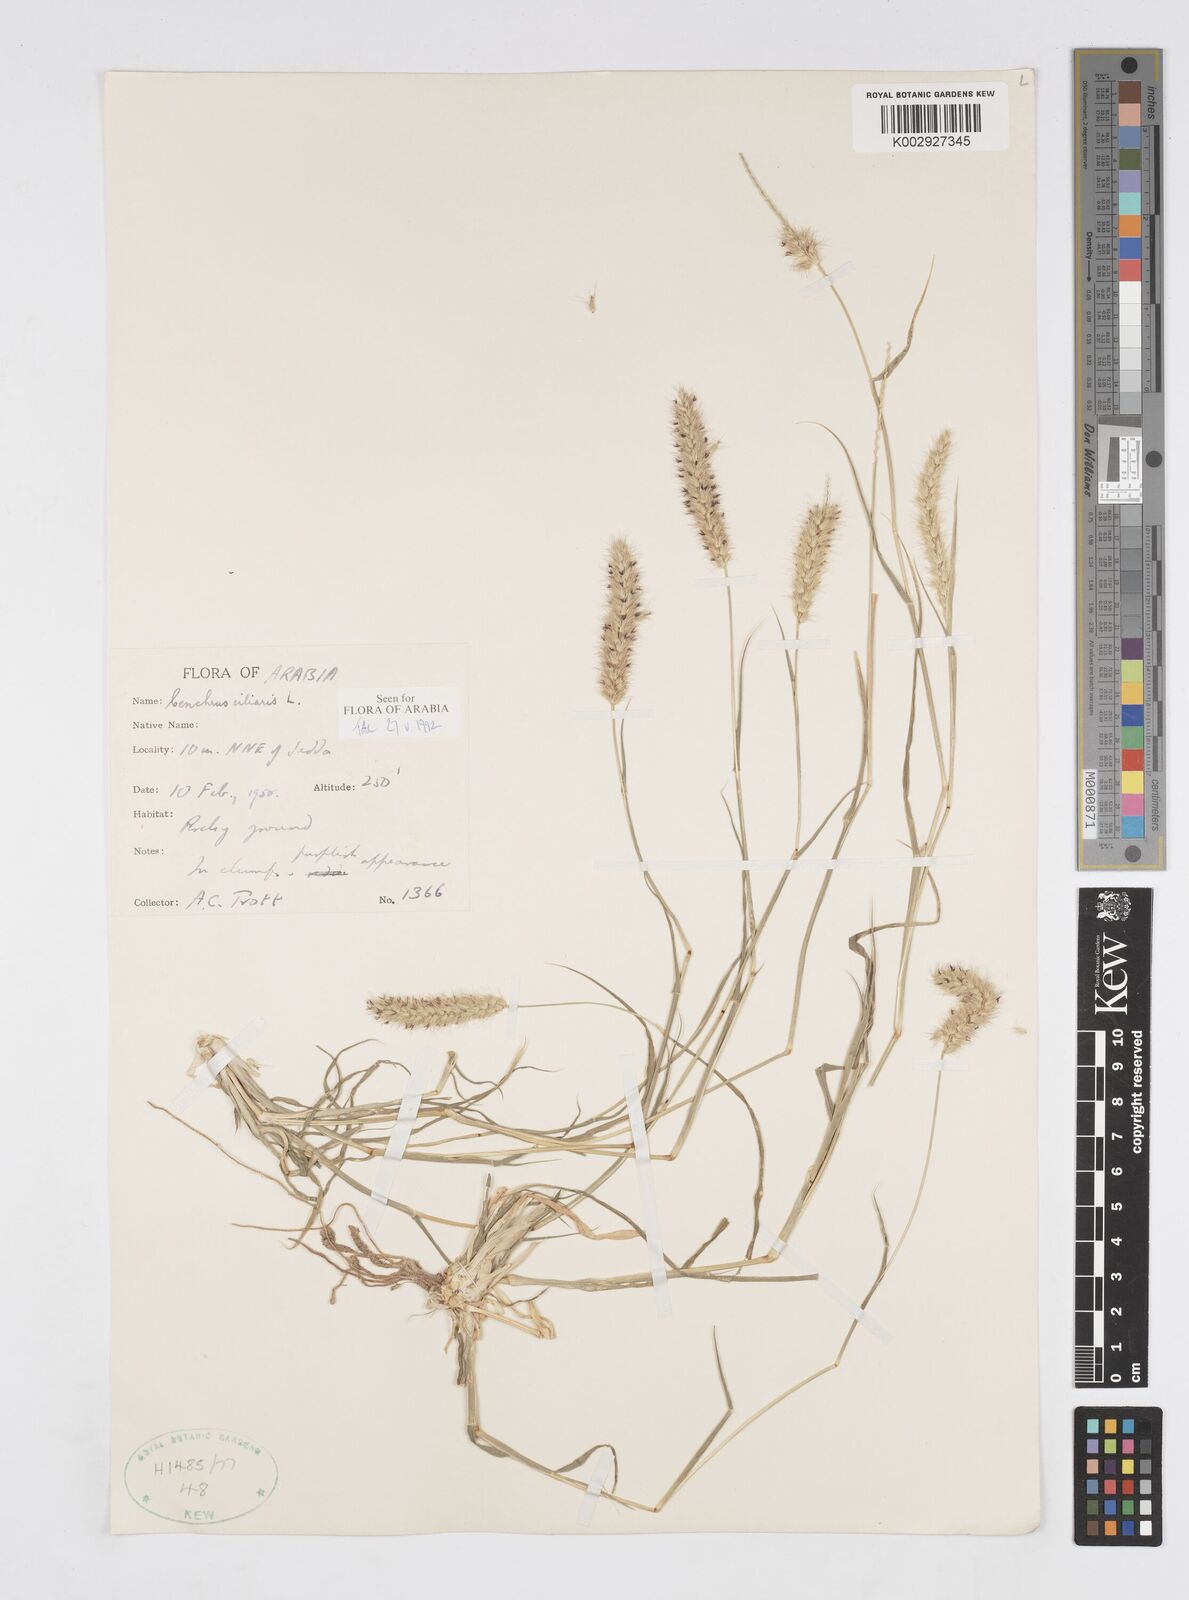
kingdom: Plantae
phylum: Tracheophyta
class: Liliopsida
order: Poales
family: Poaceae
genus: Cenchrus
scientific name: Cenchrus ciliaris
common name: Buffelgrass
